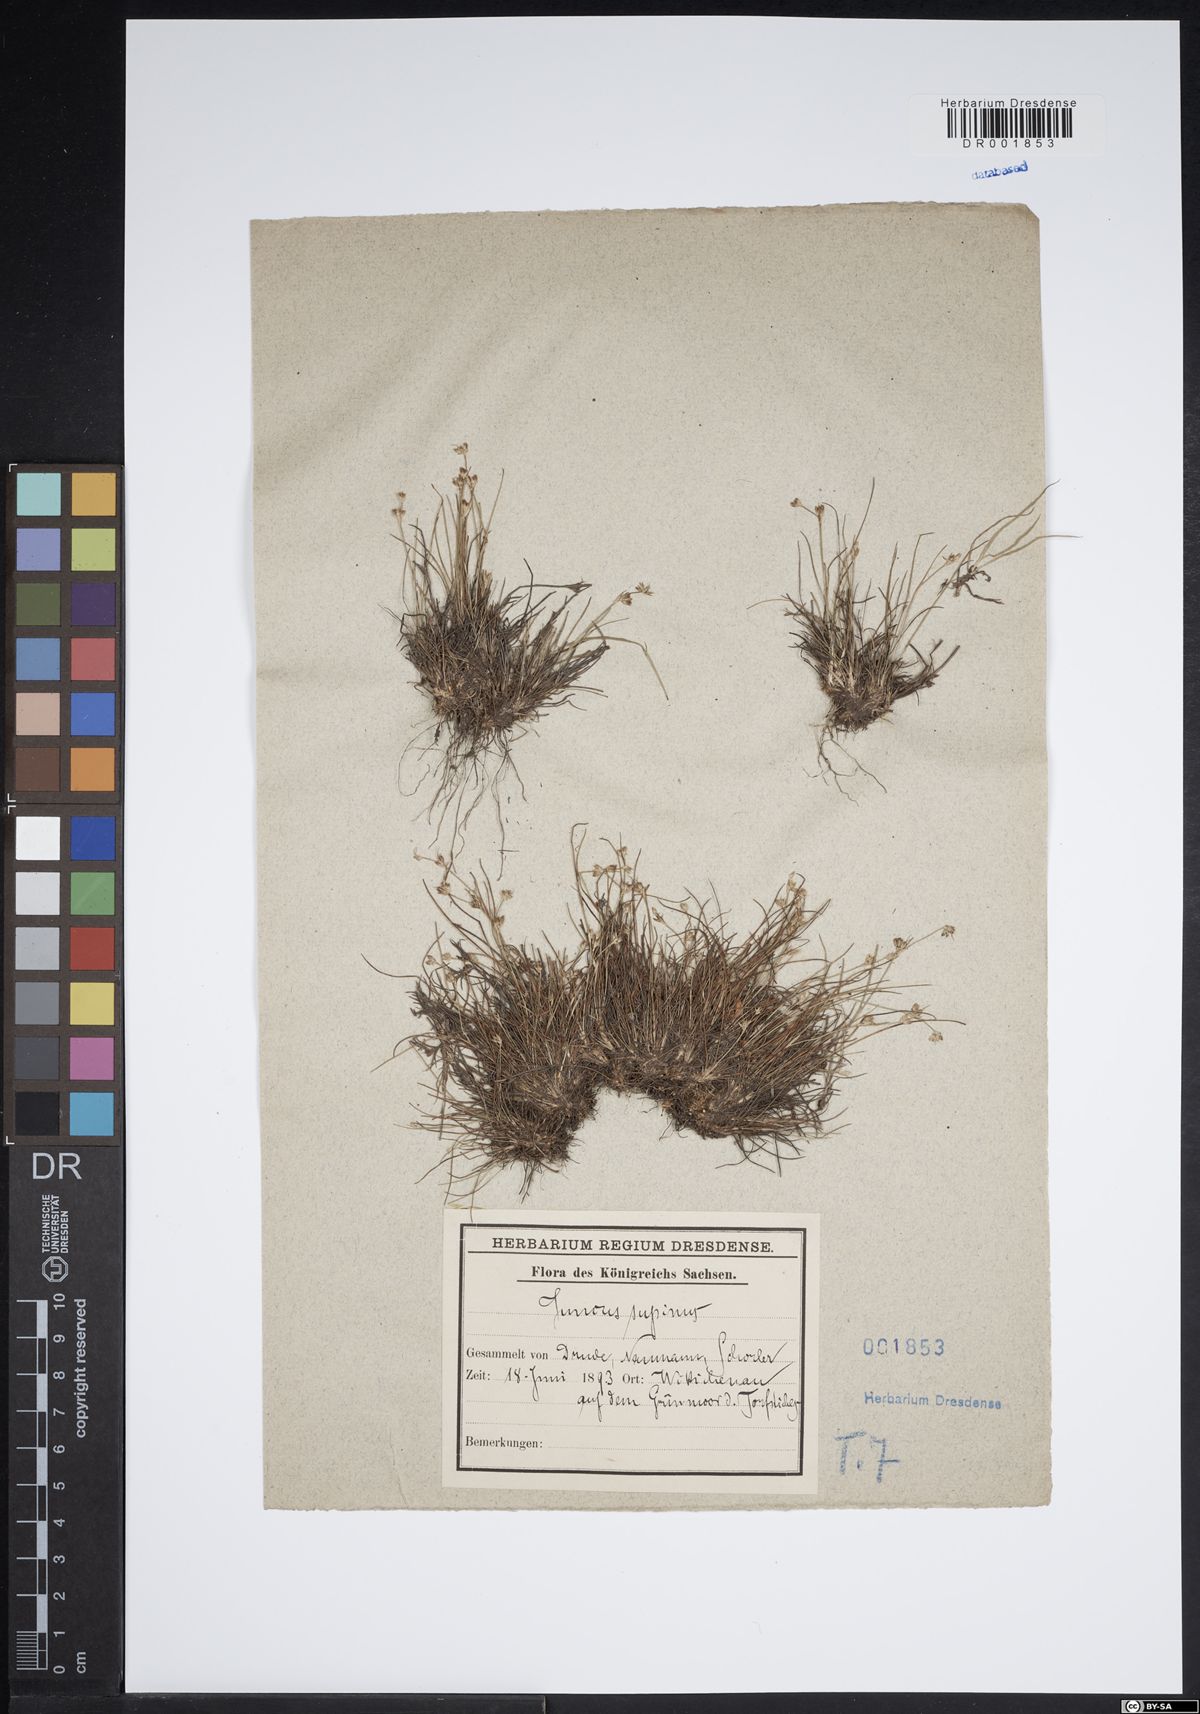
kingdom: Plantae
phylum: Tracheophyta
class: Liliopsida
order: Poales
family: Juncaceae
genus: Juncus
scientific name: Juncus bulbosus
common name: Bulbous rush
